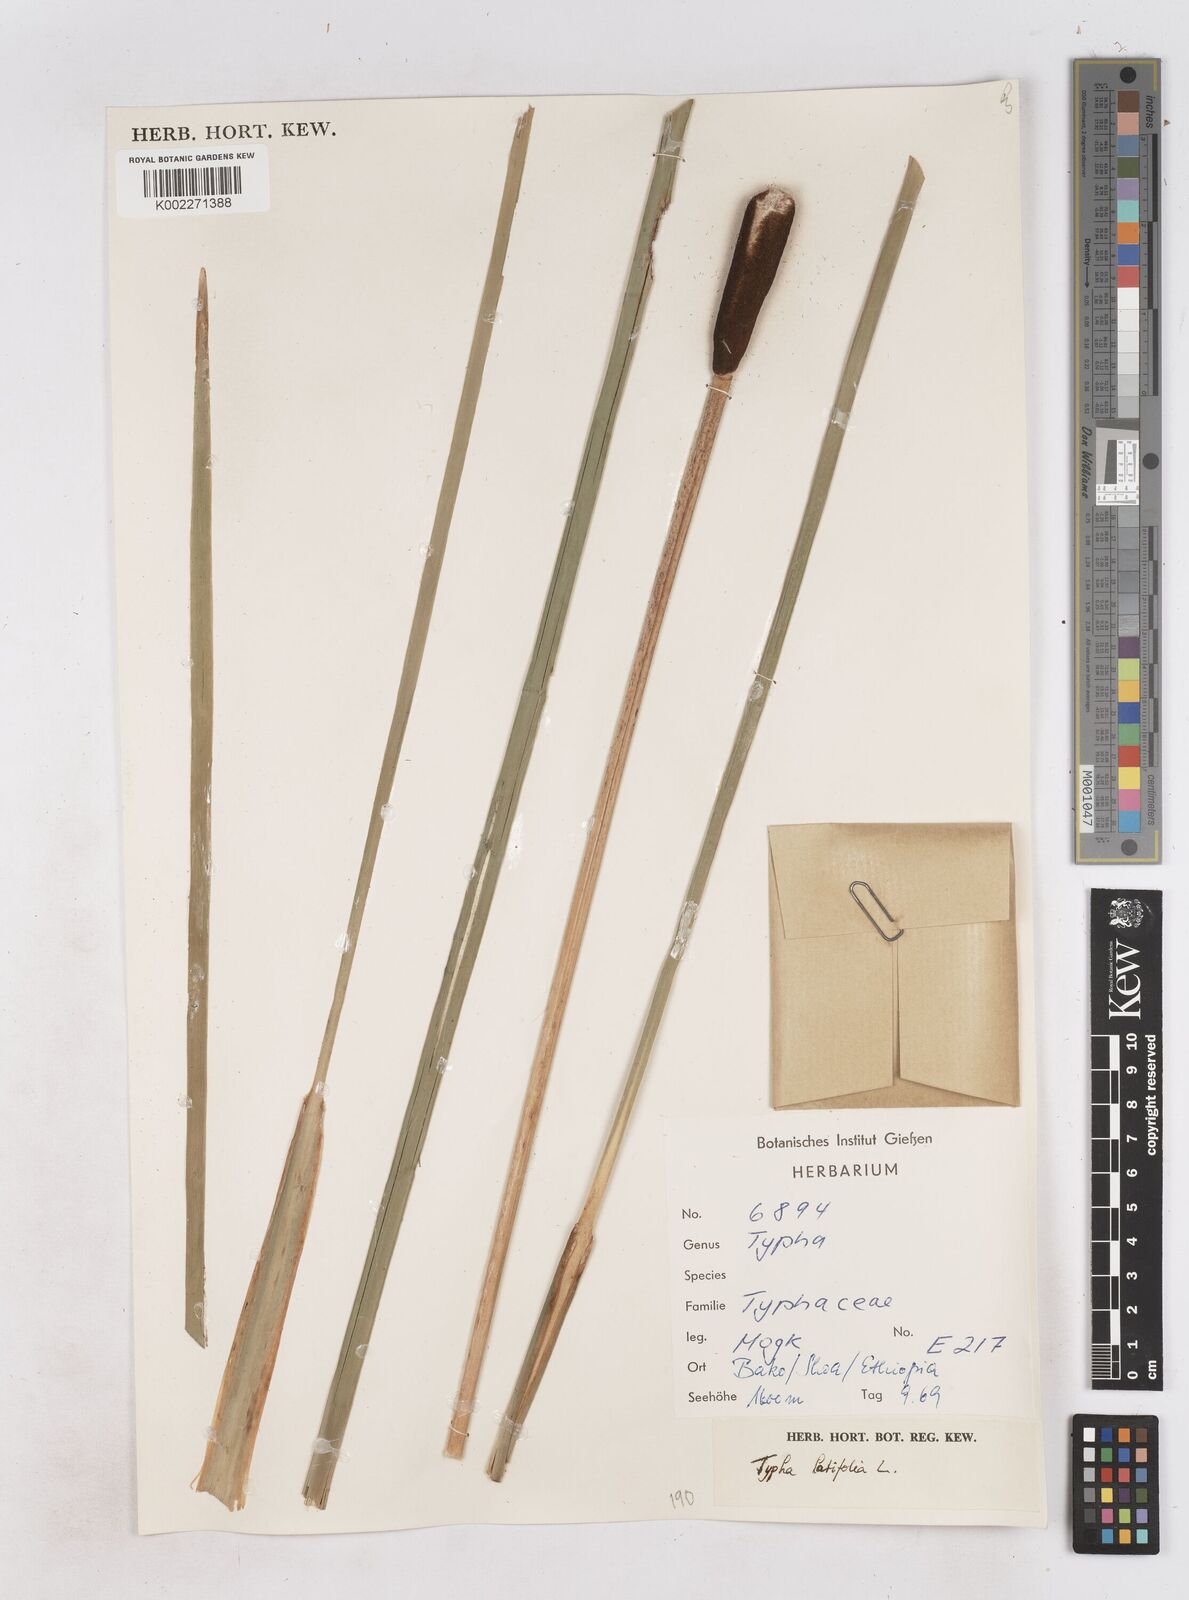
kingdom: Plantae
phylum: Tracheophyta
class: Liliopsida
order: Poales
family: Typhaceae
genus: Typha
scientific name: Typha latifolia
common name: Broadleaf cattail
